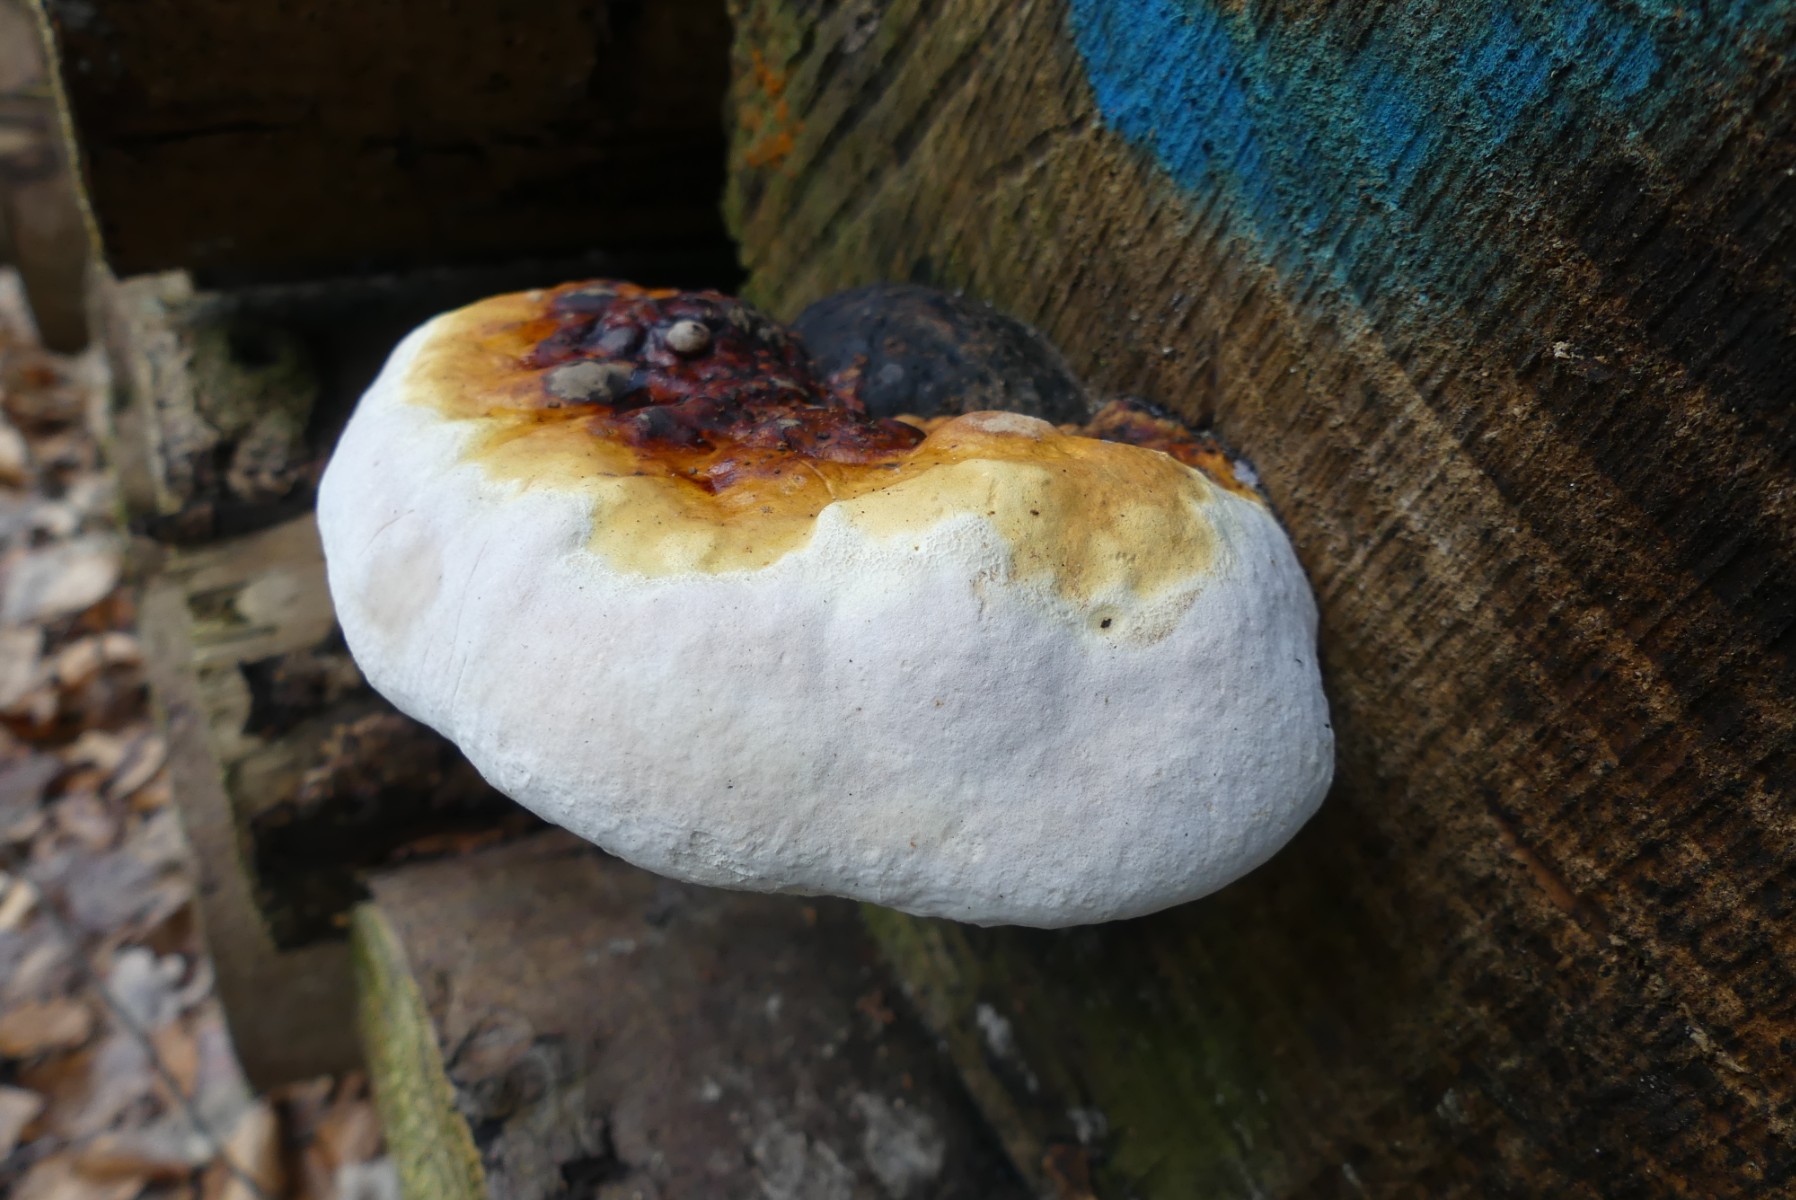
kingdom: Fungi
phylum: Basidiomycota
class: Agaricomycetes
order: Polyporales
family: Fomitopsidaceae
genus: Fomitopsis
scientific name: Fomitopsis pinicola
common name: randbæltet hovporesvamp
